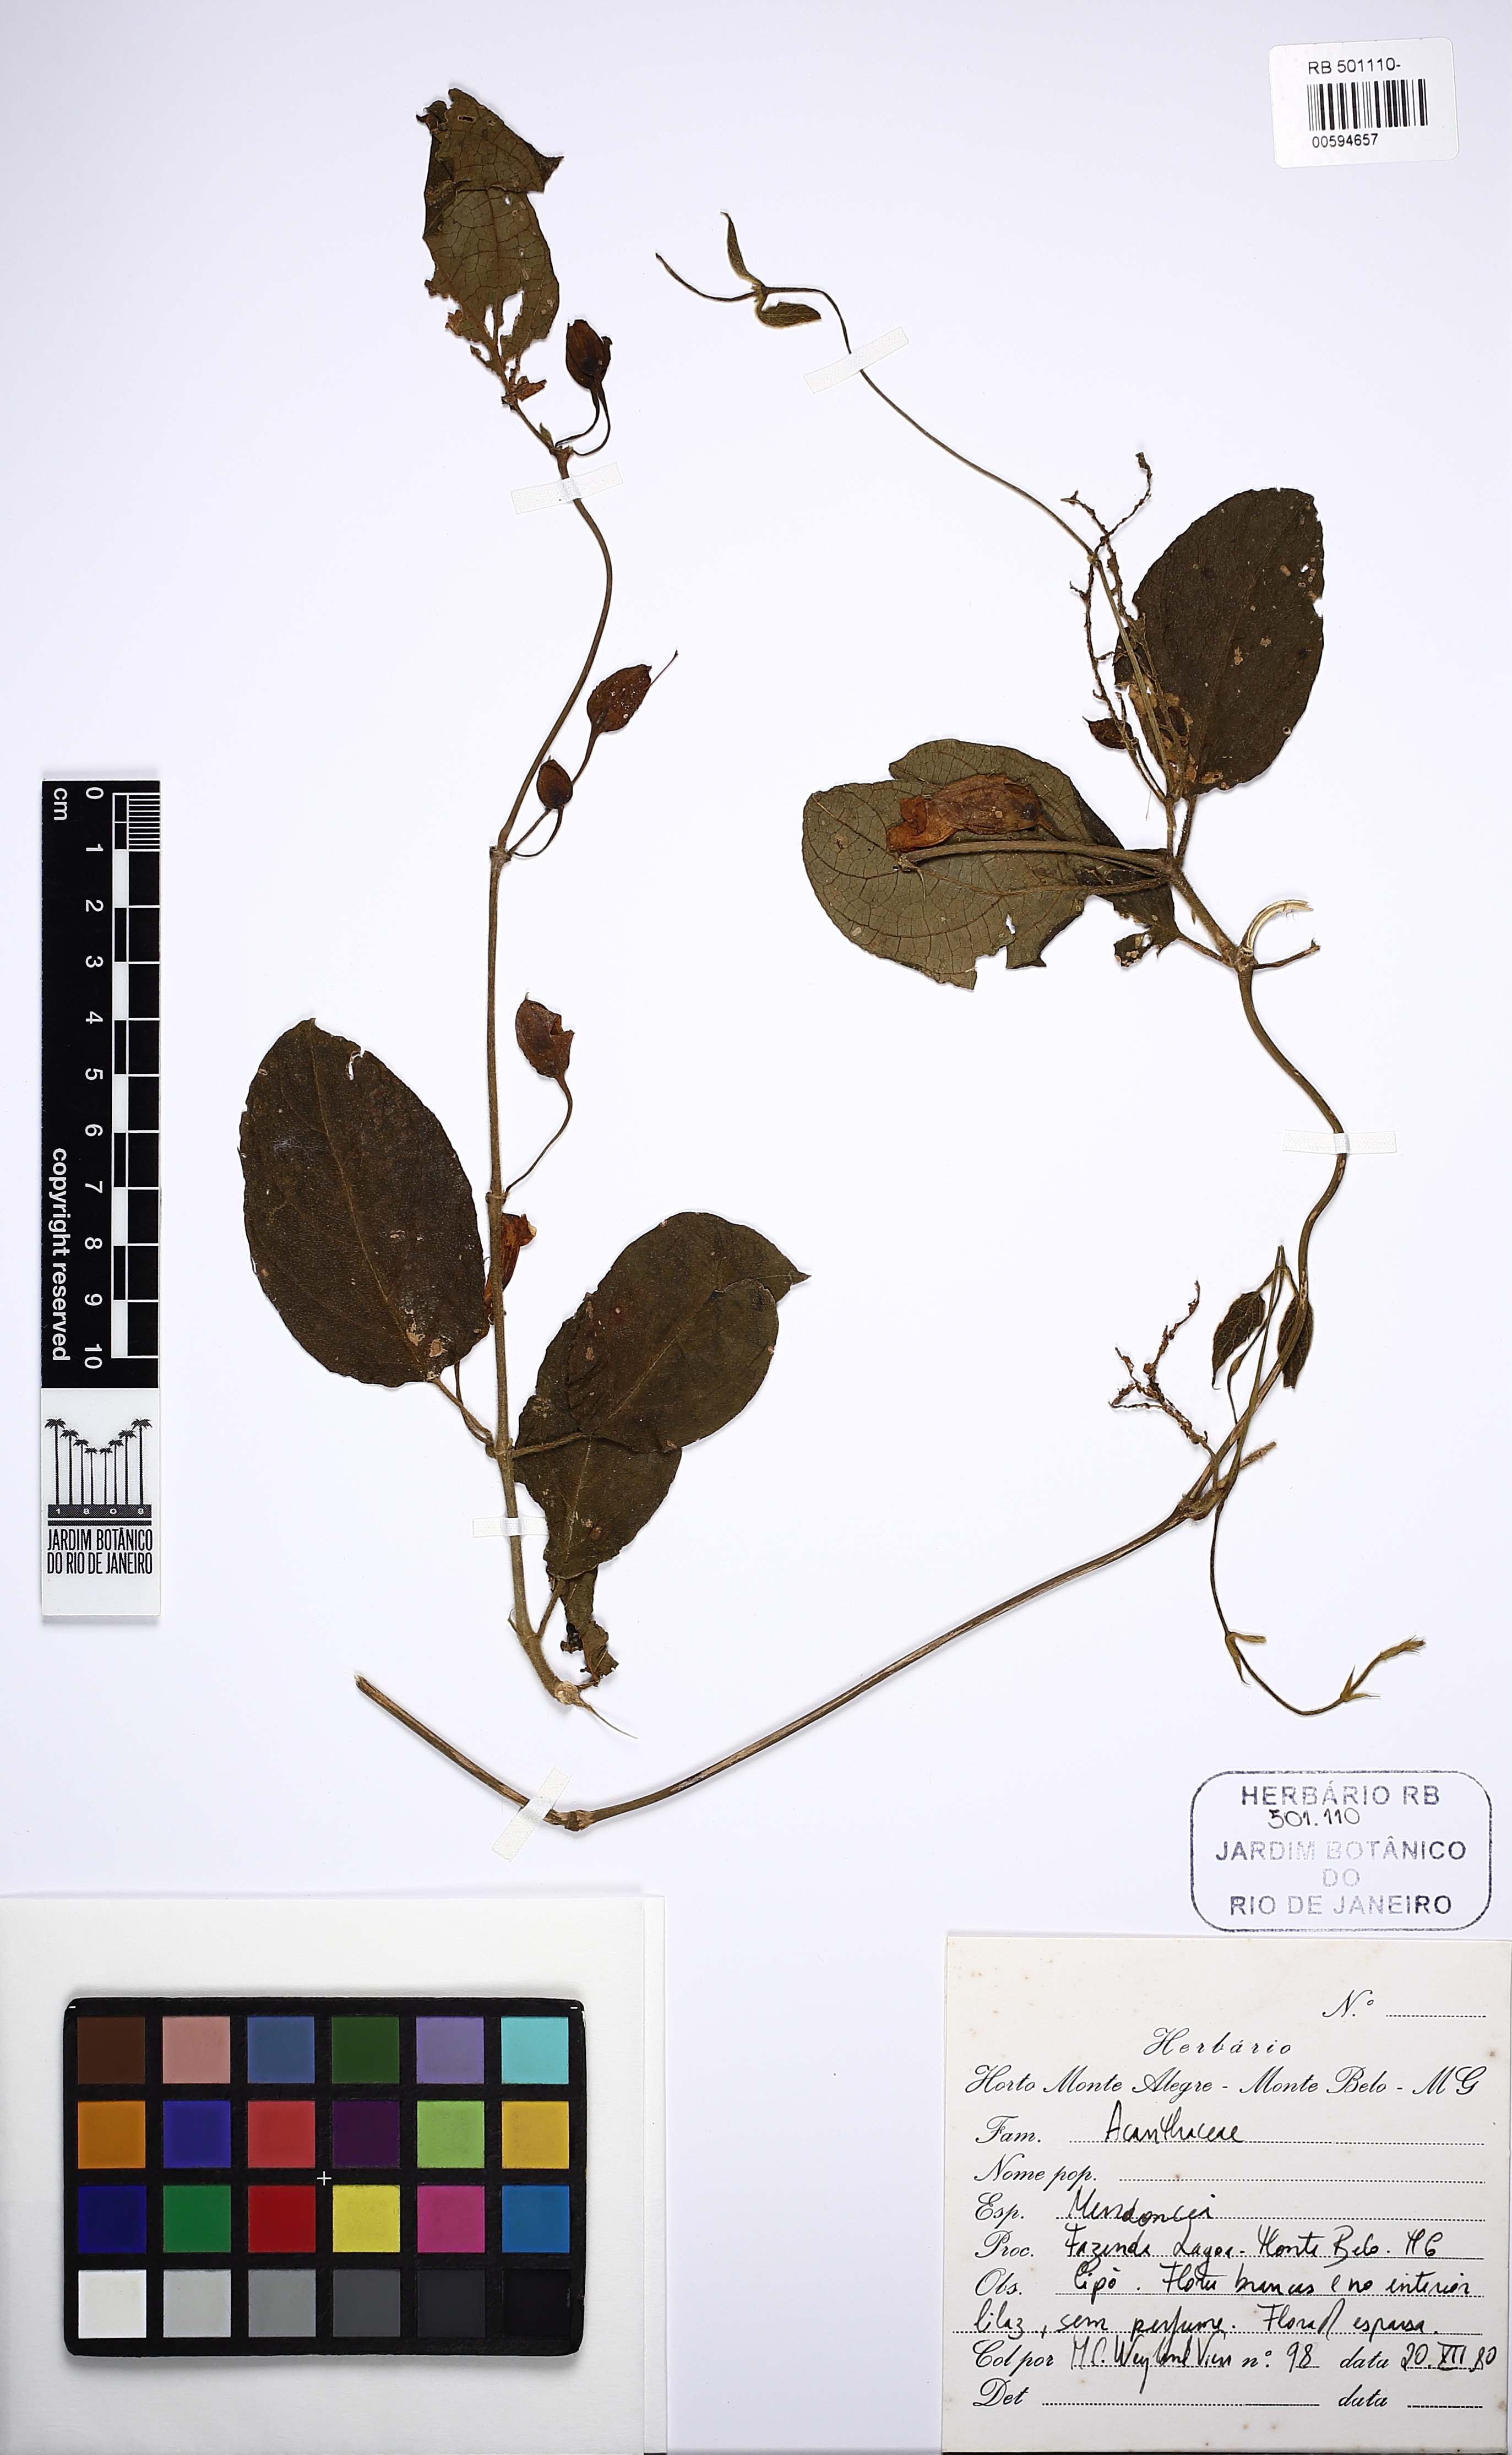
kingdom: Plantae
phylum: Tracheophyta
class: Magnoliopsida
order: Lamiales
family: Acanthaceae
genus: Mendoncia
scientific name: Mendoncia puberula
